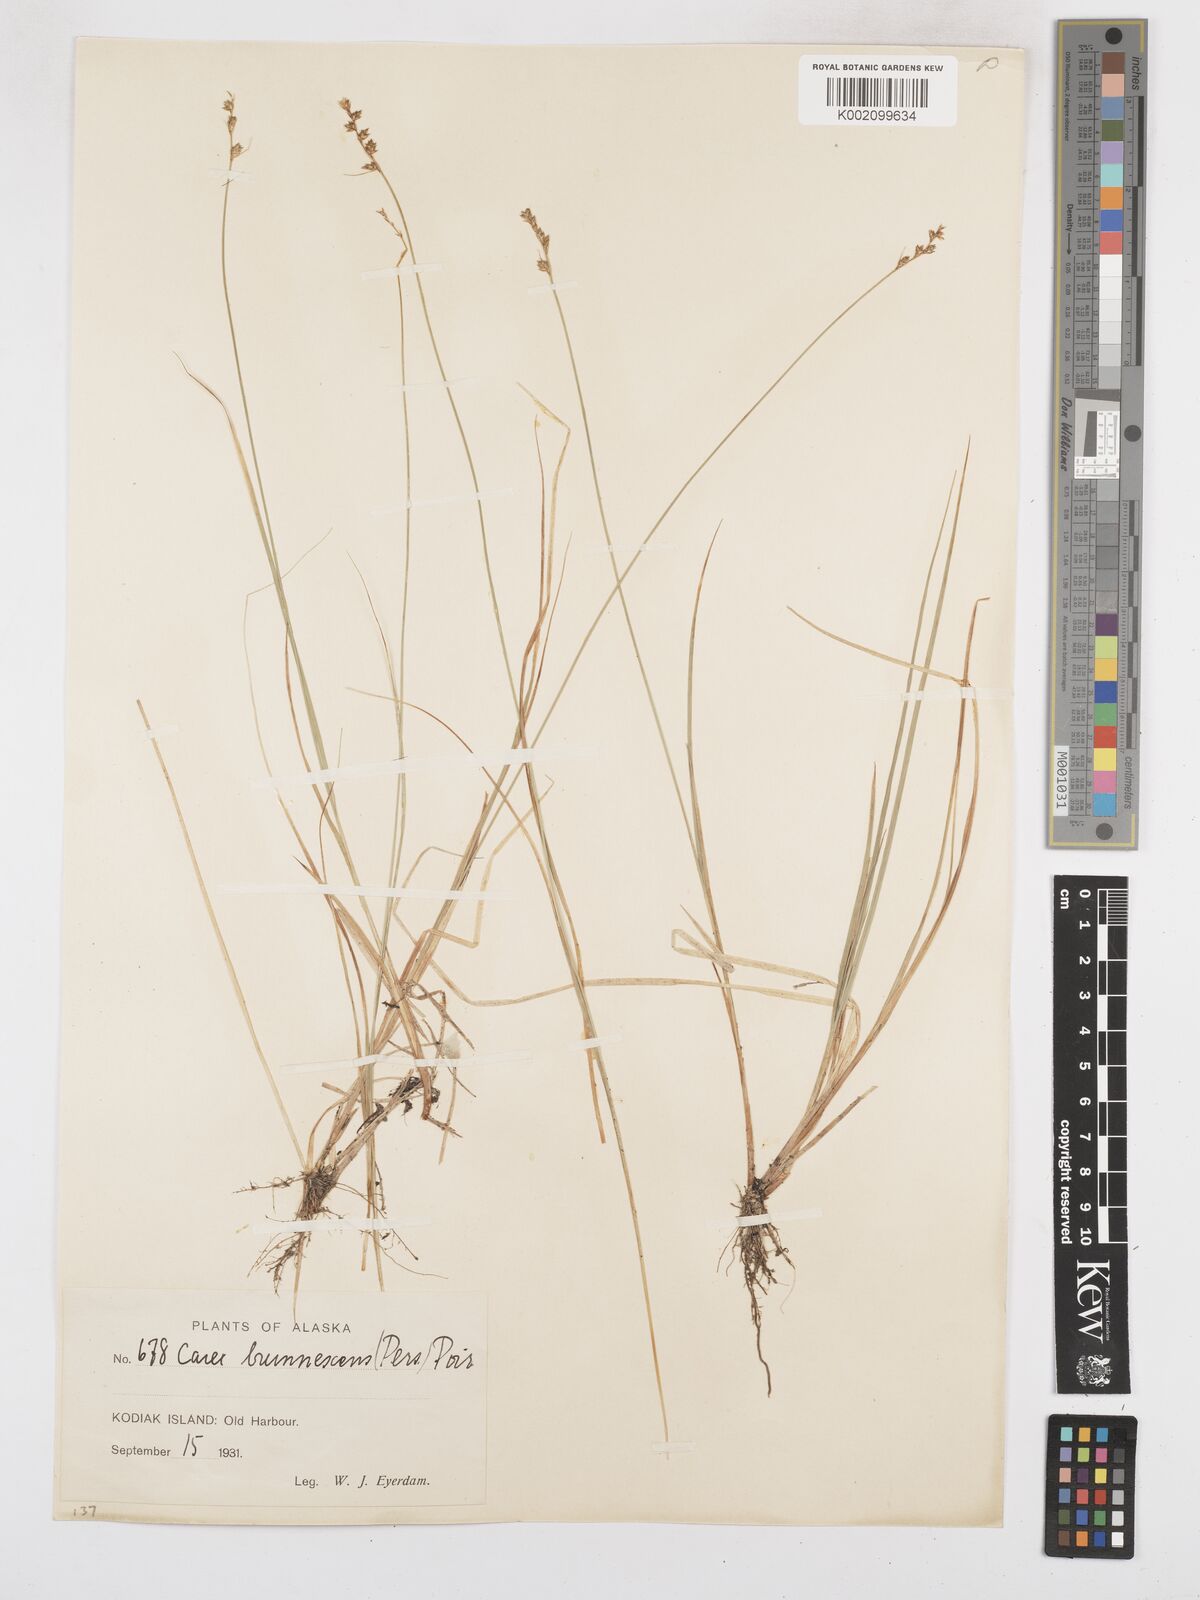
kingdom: Plantae
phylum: Tracheophyta
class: Liliopsida
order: Poales
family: Cyperaceae
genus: Carex
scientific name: Carex brunnescens
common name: Brown sedge
